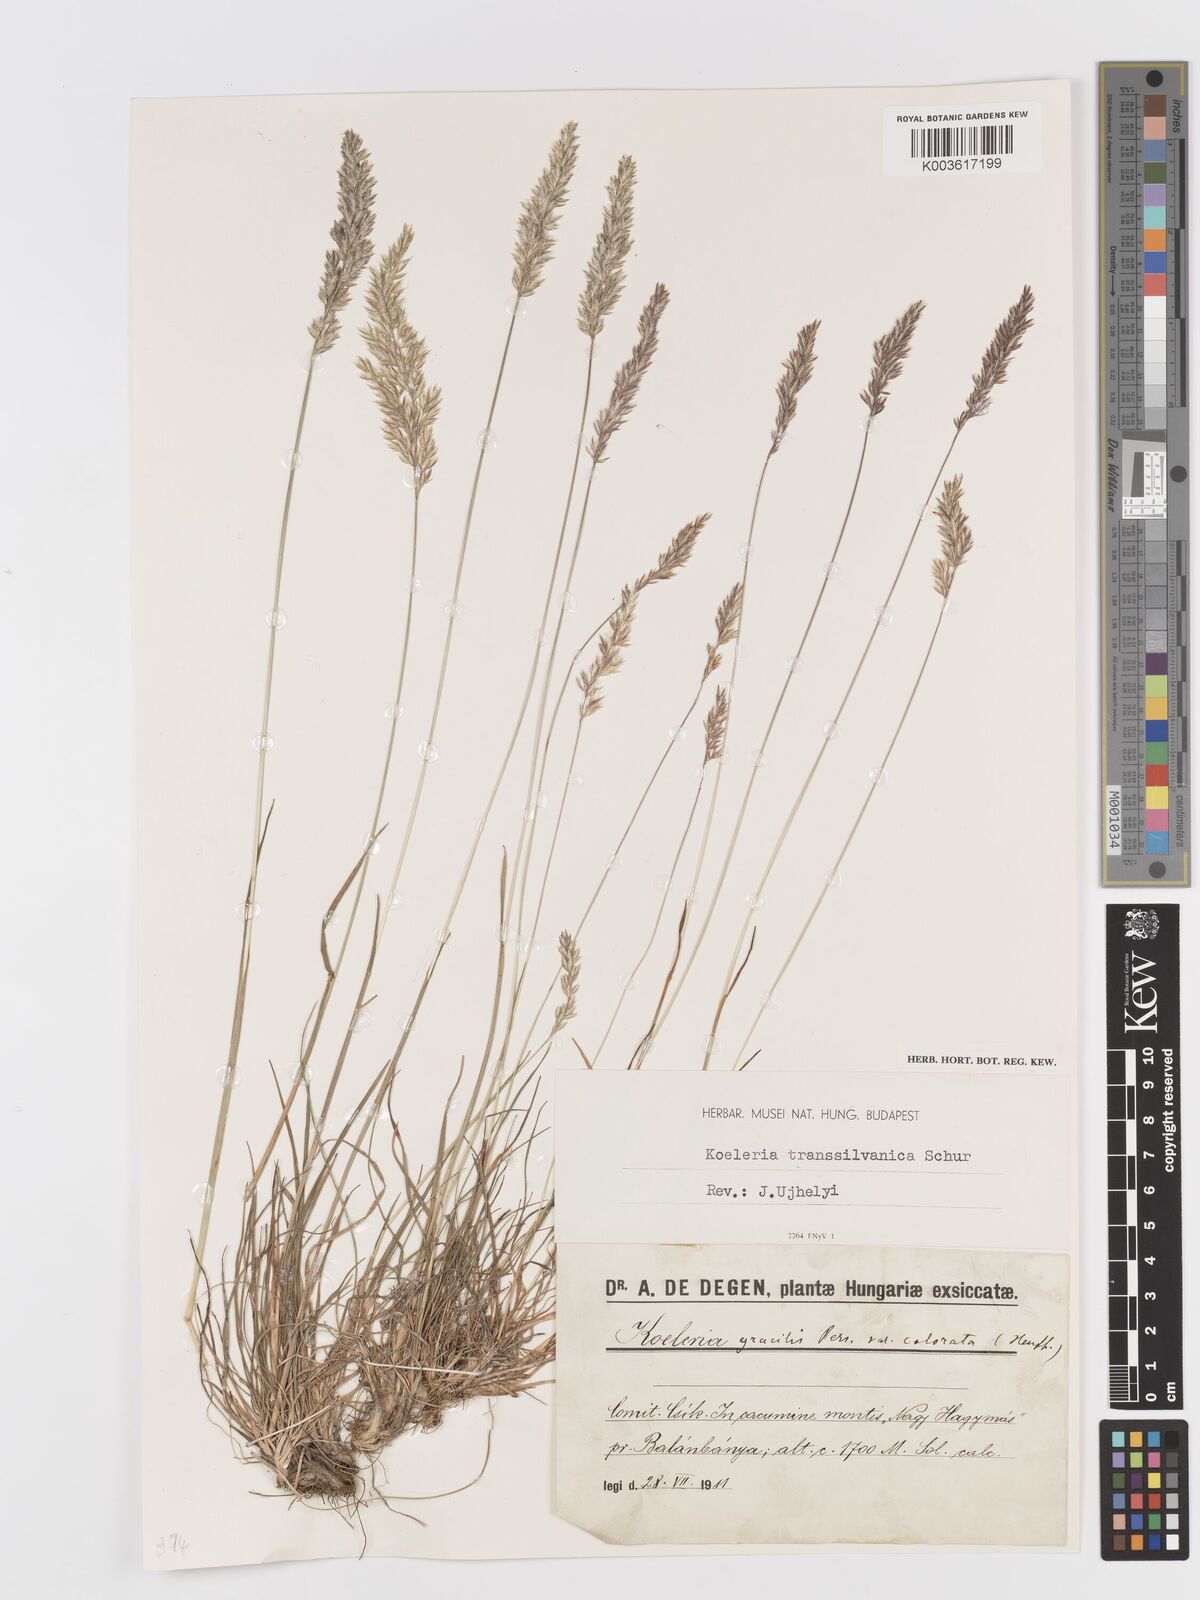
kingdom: Plantae
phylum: Tracheophyta
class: Liliopsida
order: Poales
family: Poaceae
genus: Koeleria
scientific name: Koeleria
